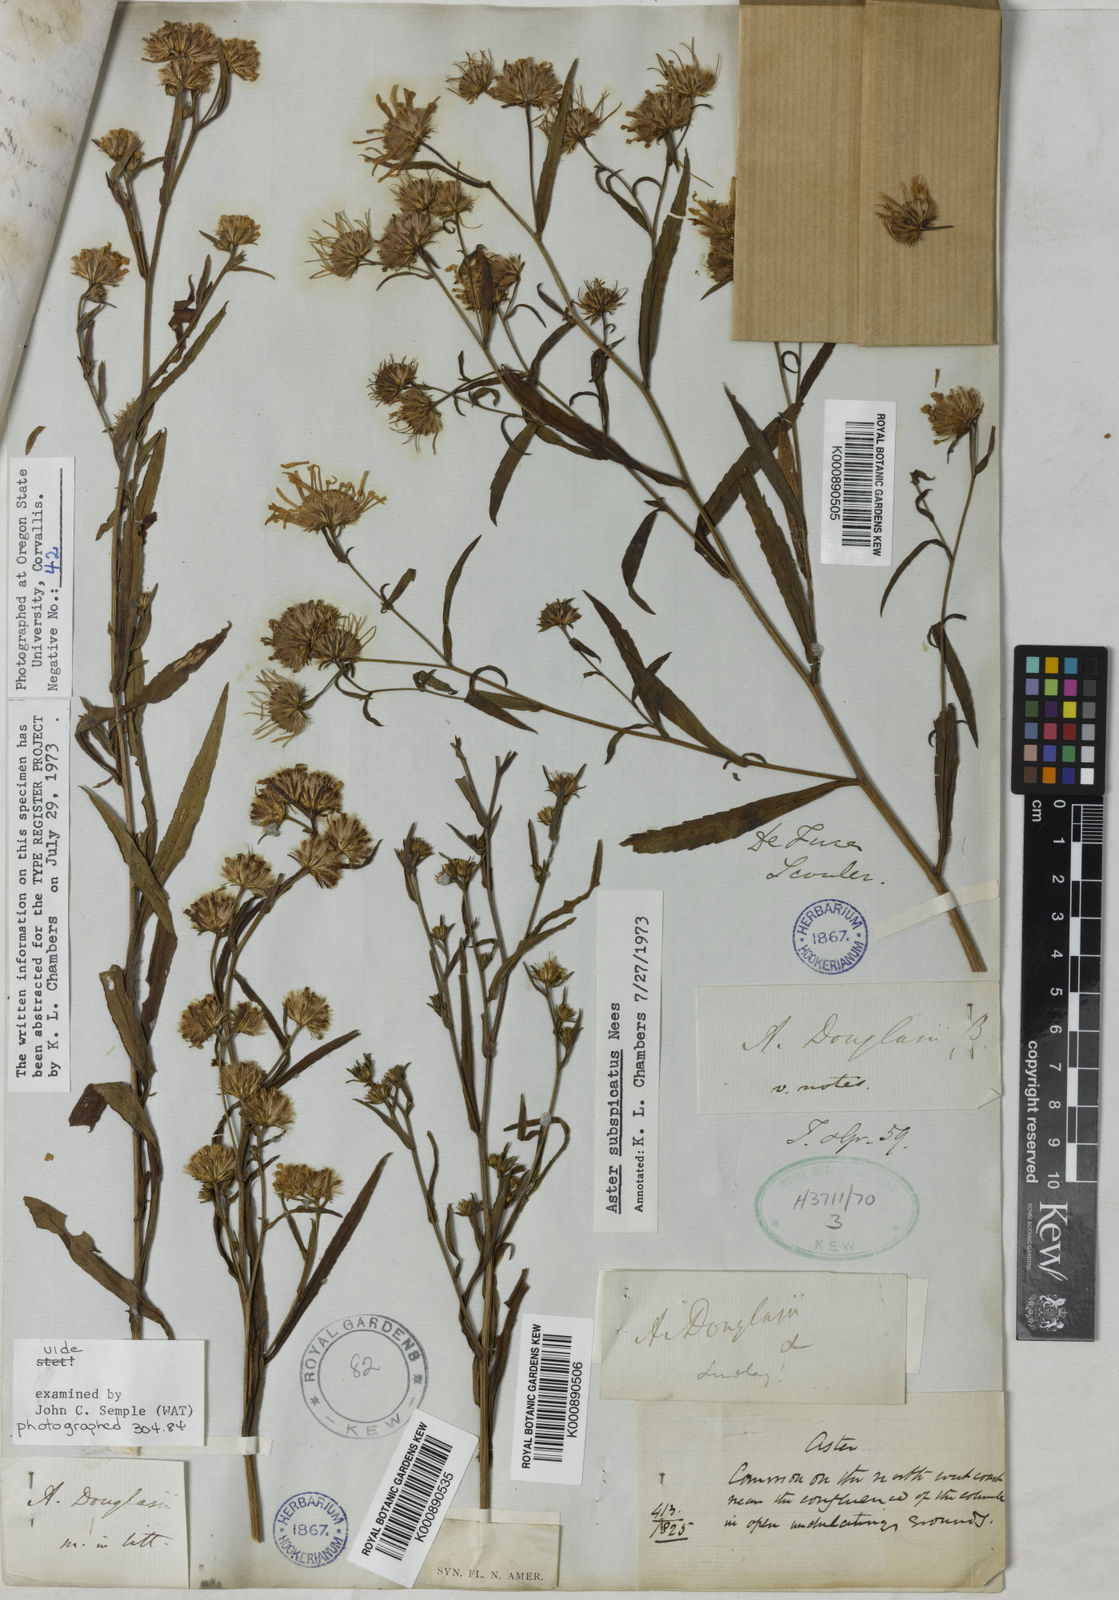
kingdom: Plantae
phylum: Tracheophyta
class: Magnoliopsida
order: Asterales
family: Asteraceae
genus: Symphyotrichum
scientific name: Symphyotrichum subspicatum
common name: Douglas' aster
